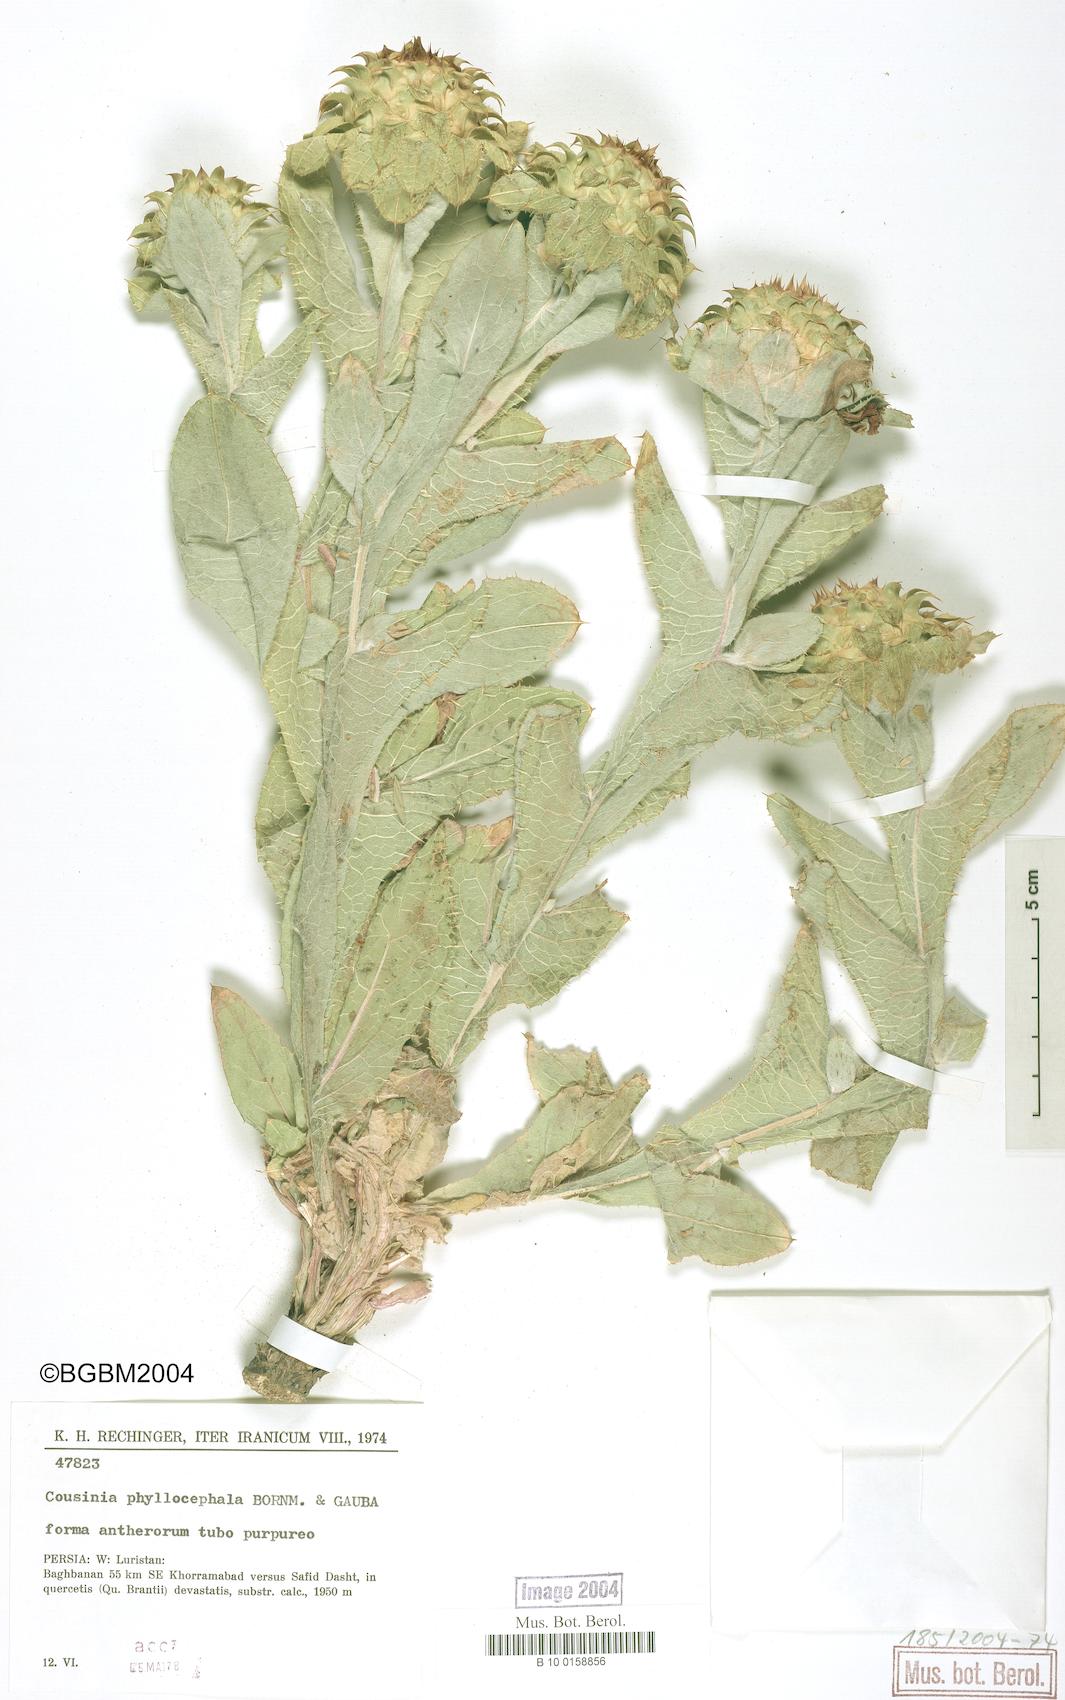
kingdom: Plantae
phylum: Tracheophyta
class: Magnoliopsida
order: Asterales
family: Asteraceae
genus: Cousinia
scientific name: Cousinia phyllocephala
